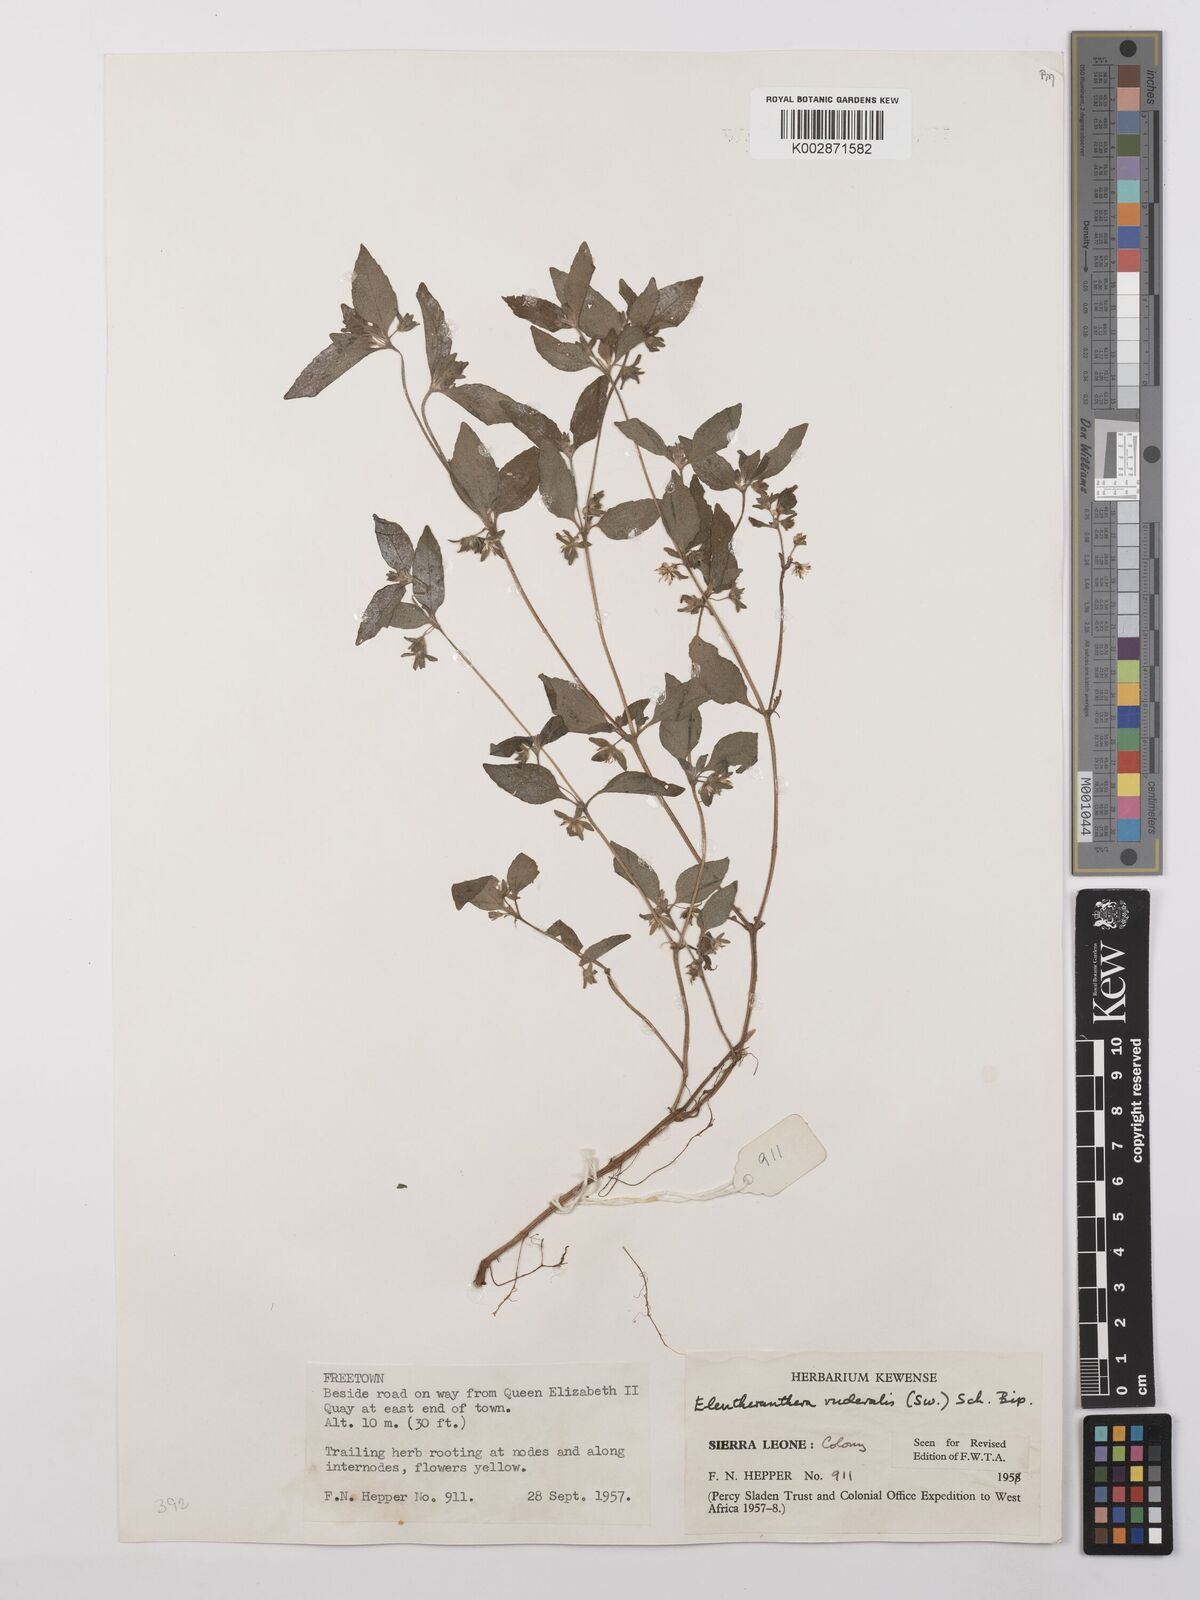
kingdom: Plantae
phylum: Tracheophyta
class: Magnoliopsida
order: Asterales
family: Asteraceae
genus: Eleutheranthera
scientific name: Eleutheranthera ruderalis
